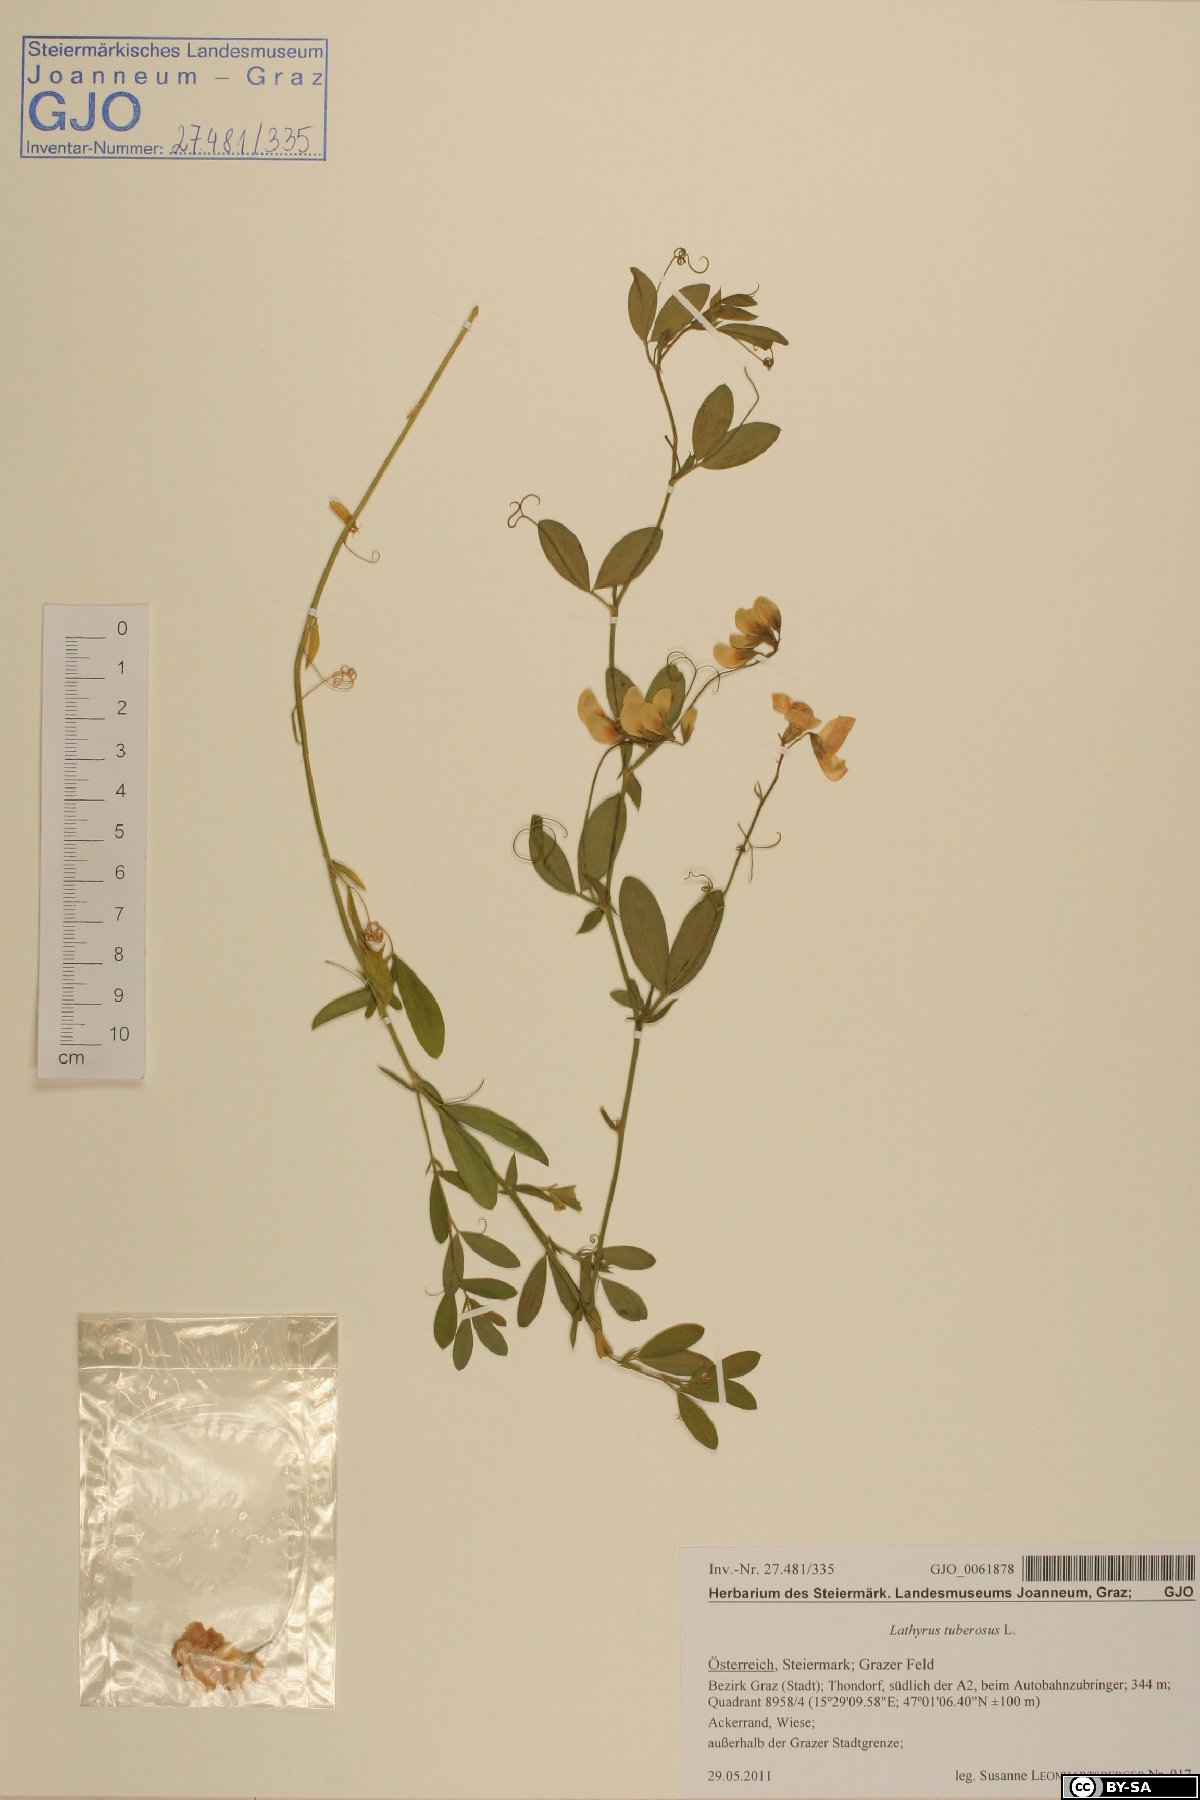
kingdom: Plantae
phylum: Tracheophyta
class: Magnoliopsida
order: Fabales
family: Fabaceae
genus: Lathyrus
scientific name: Lathyrus tuberosus
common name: Tuberous pea
